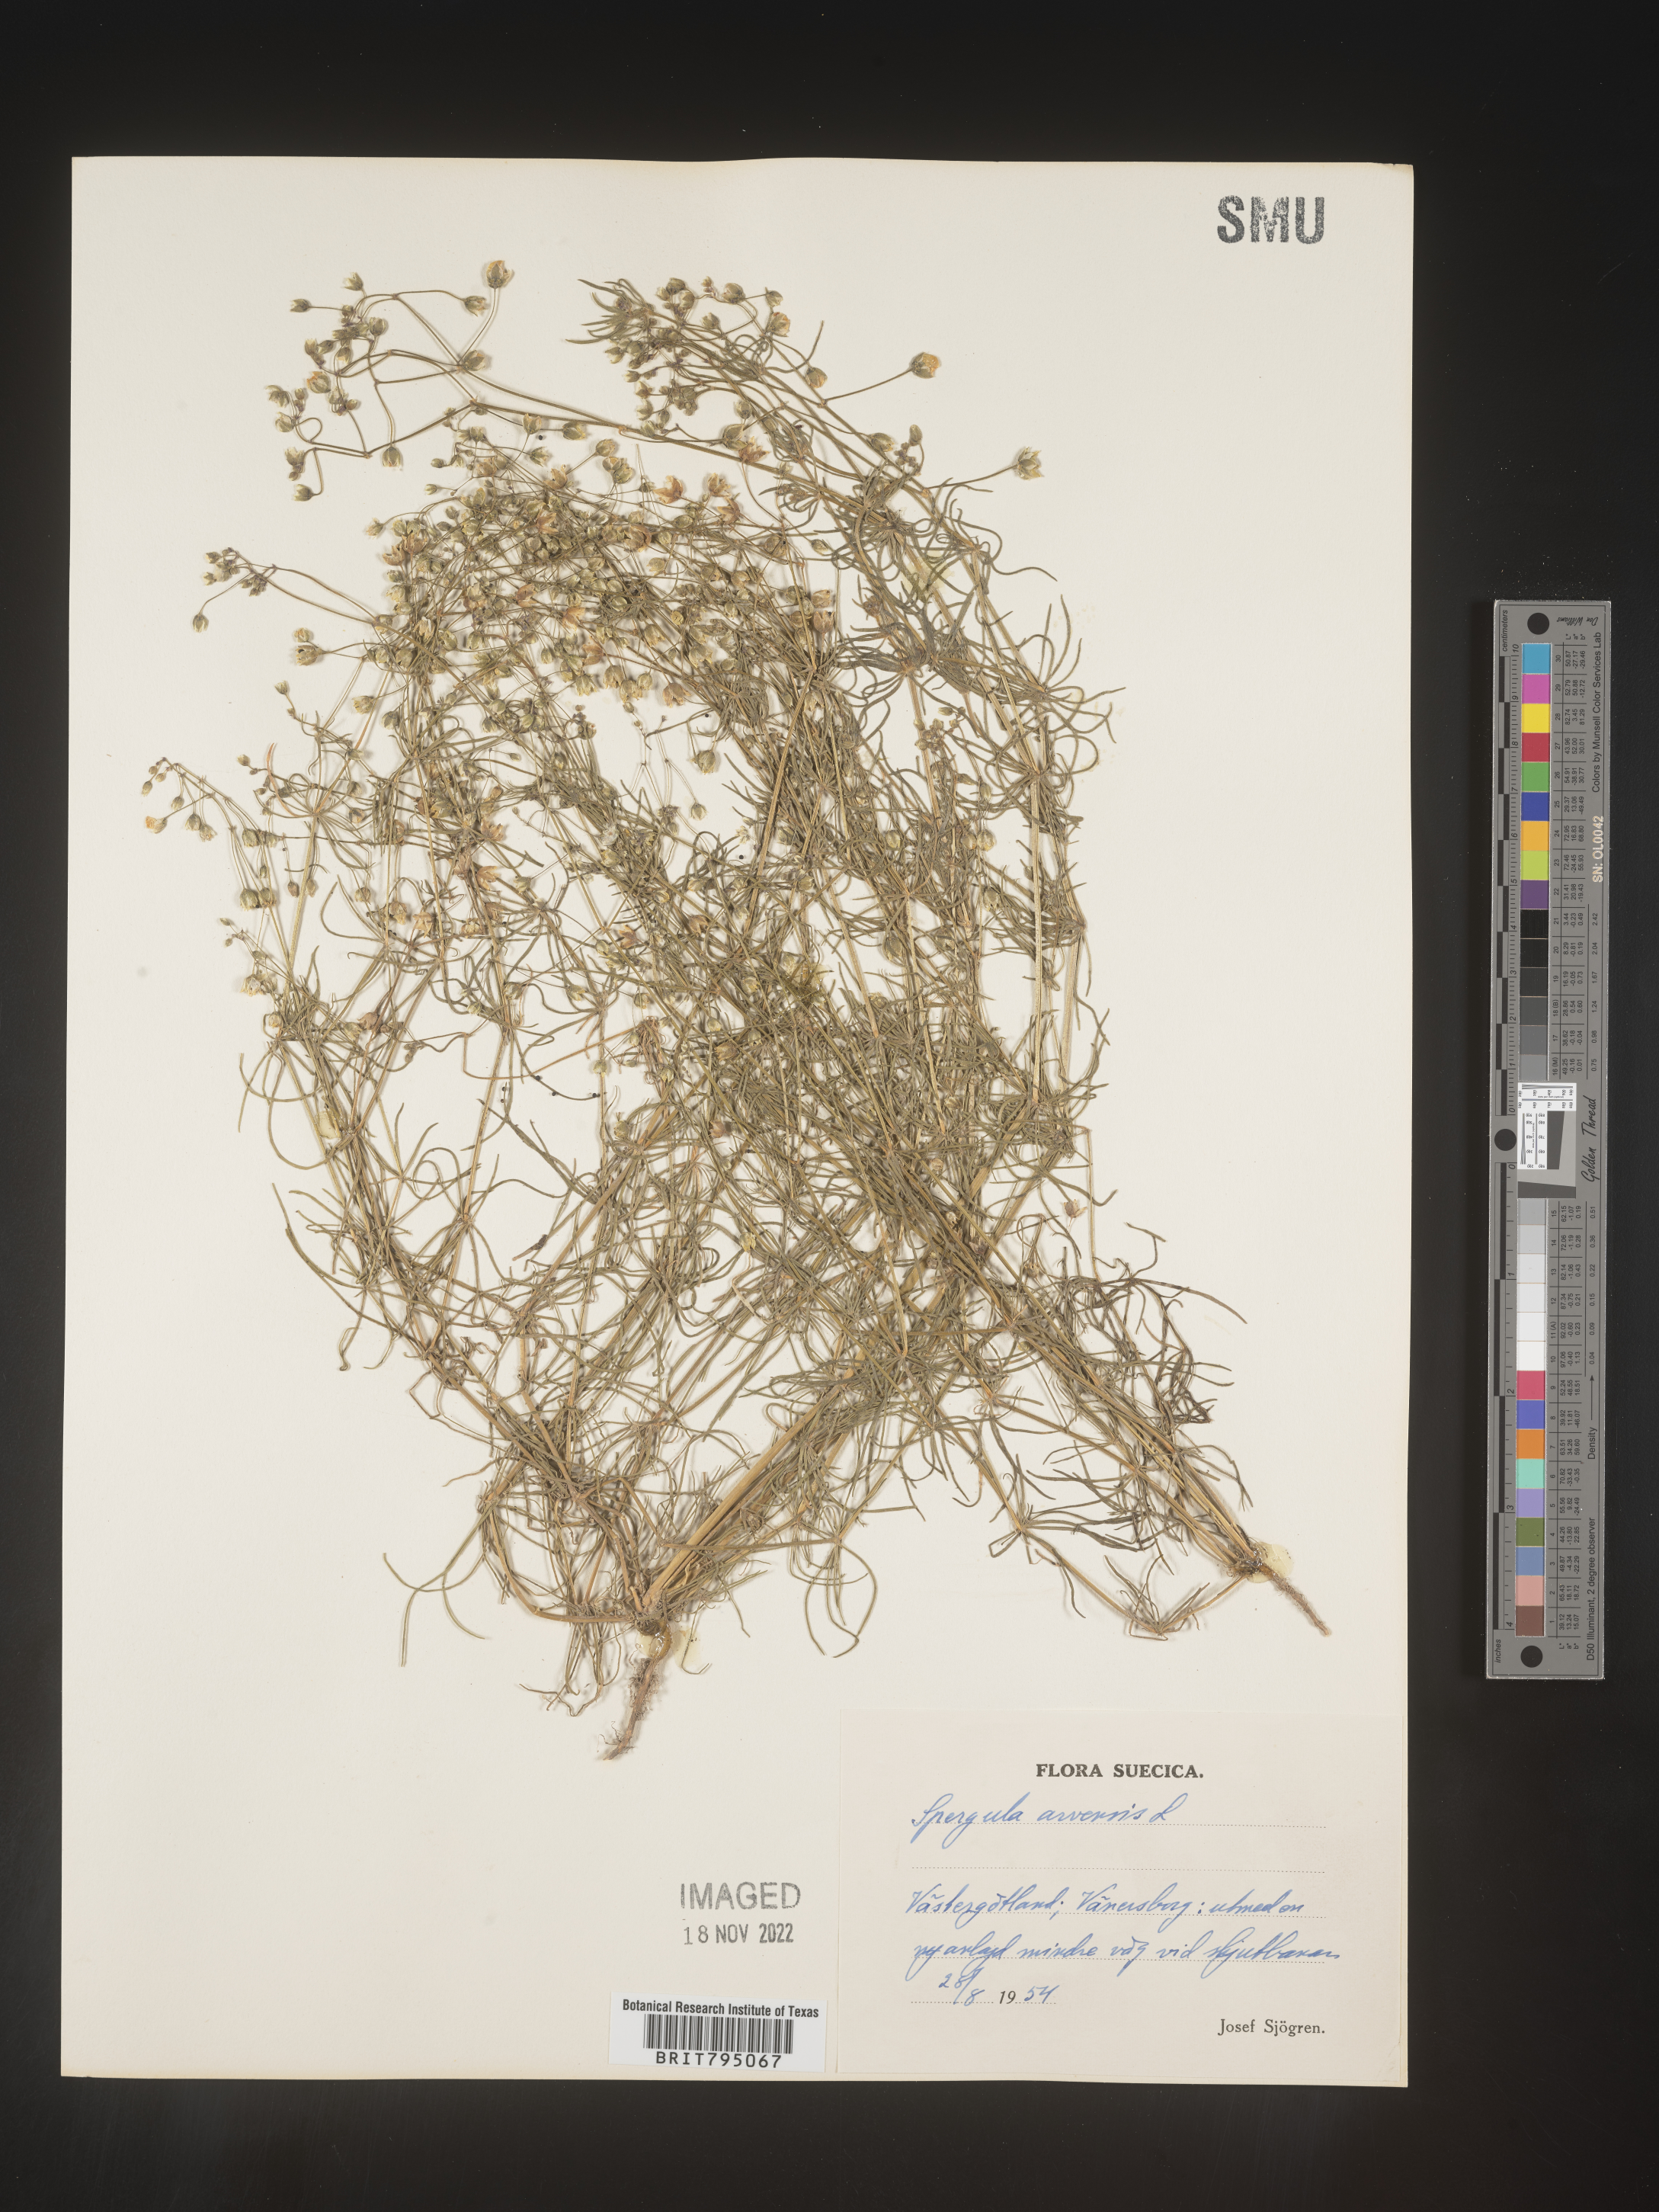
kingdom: Plantae
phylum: Tracheophyta
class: Magnoliopsida
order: Caryophyllales
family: Caryophyllaceae
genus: Spergula
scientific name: Spergula arvensis
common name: Corn spurrey
